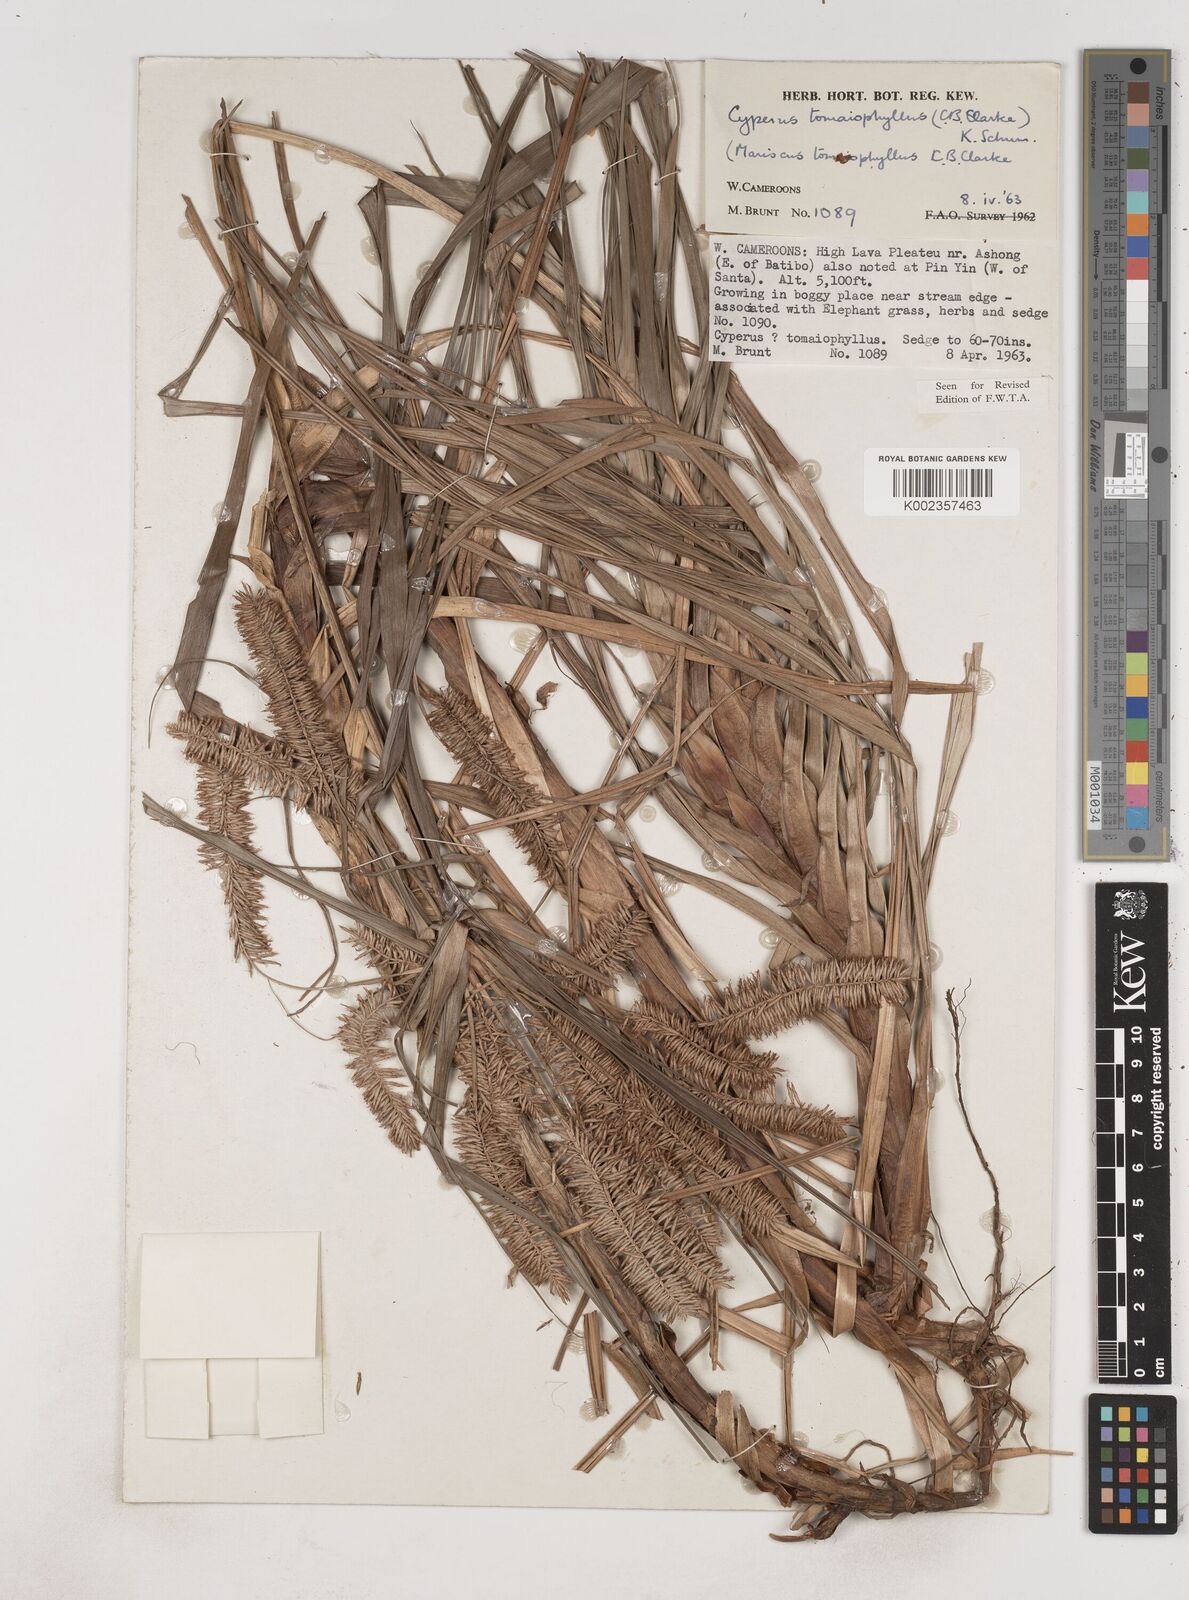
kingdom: Plantae
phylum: Tracheophyta
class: Liliopsida
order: Poales
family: Cyperaceae
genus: Cyperus
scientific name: Cyperus tomaiophyllus
